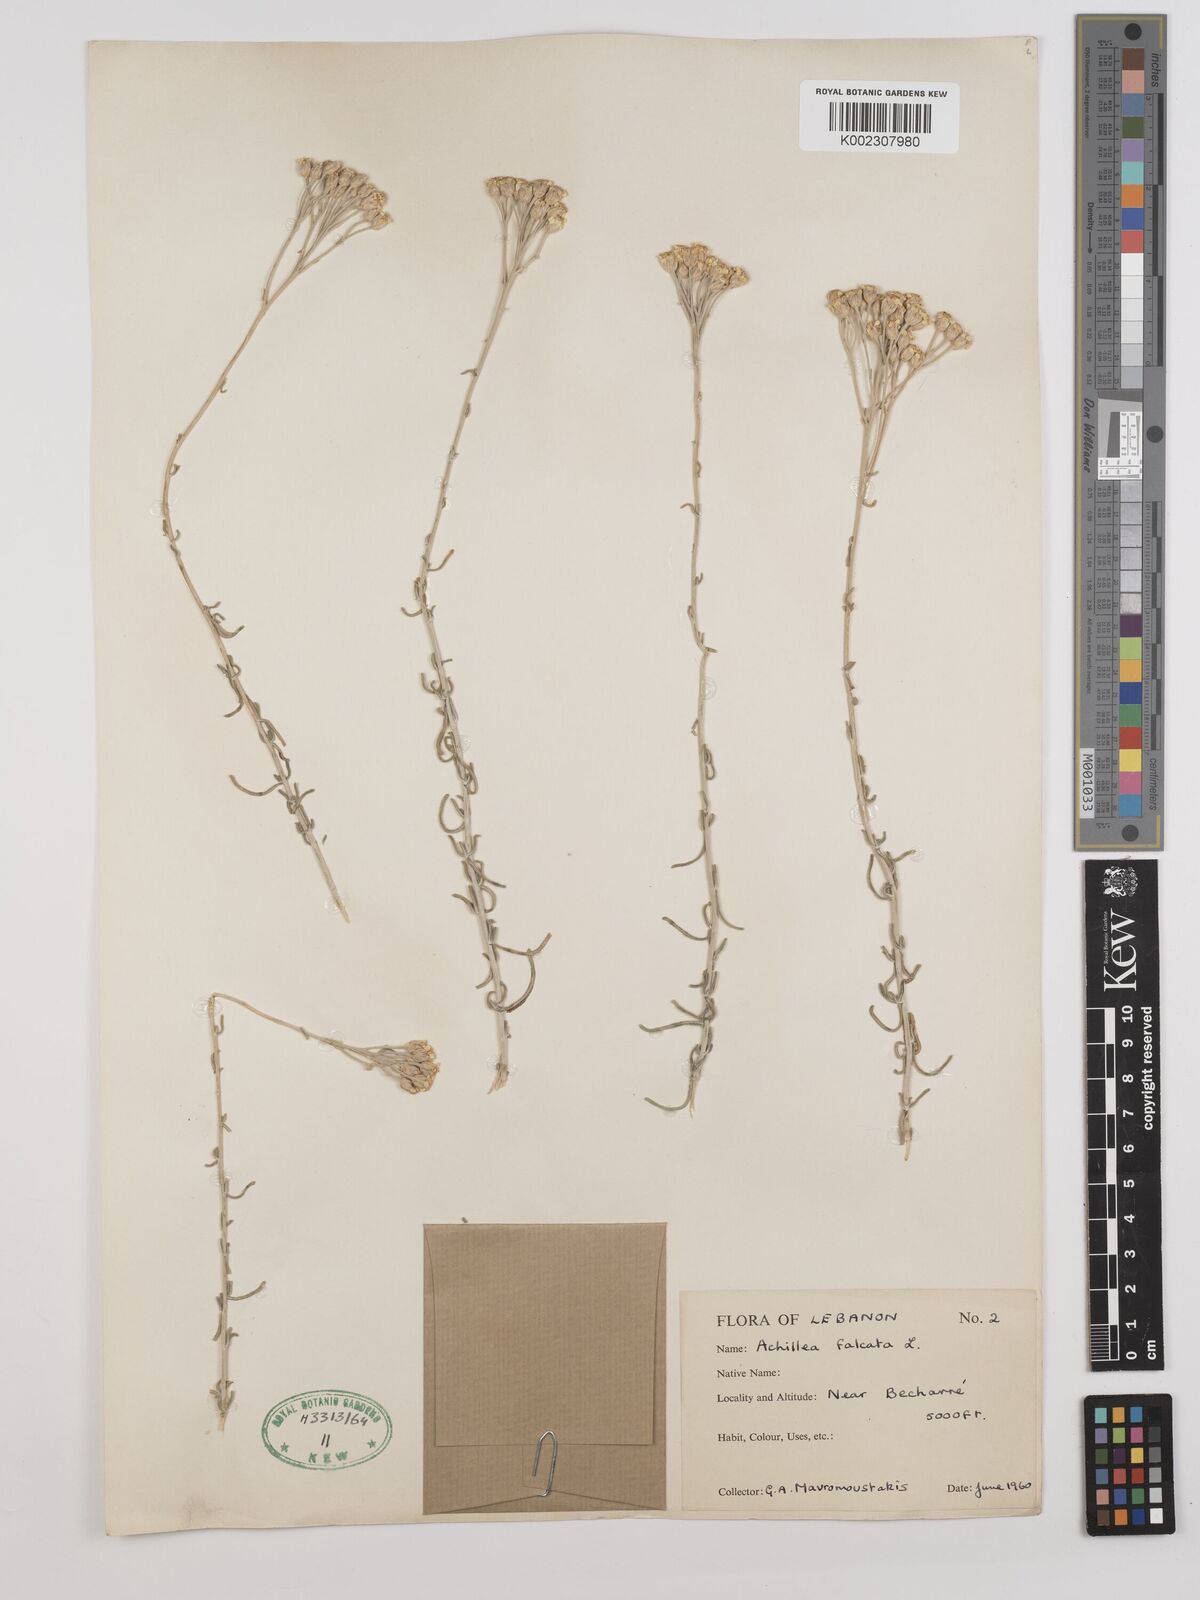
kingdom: Plantae
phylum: Tracheophyta
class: Magnoliopsida
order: Asterales
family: Asteraceae
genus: Achillea
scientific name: Achillea falcata
